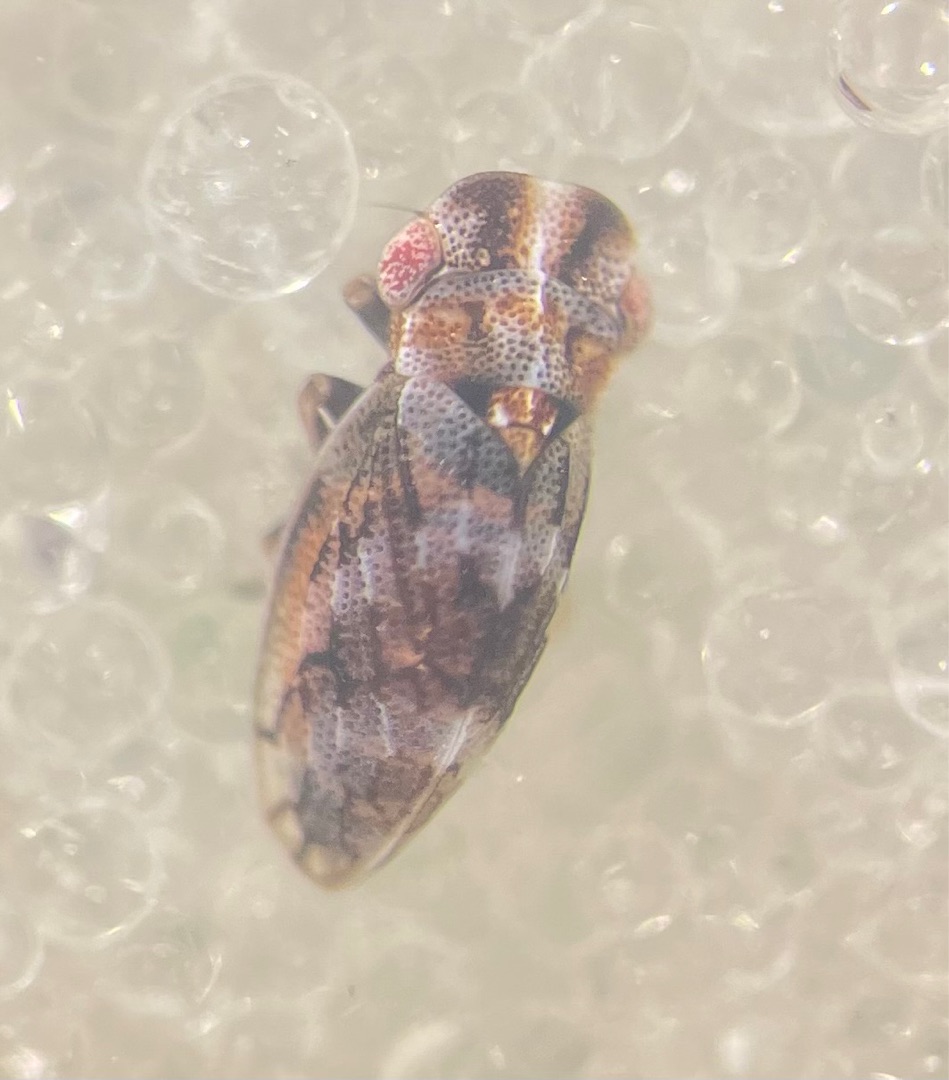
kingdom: Animalia
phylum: Arthropoda
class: Insecta
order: Hemiptera
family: Cicadellidae
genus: Ulopa
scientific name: Ulopa reticulata
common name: Lyngcikade
